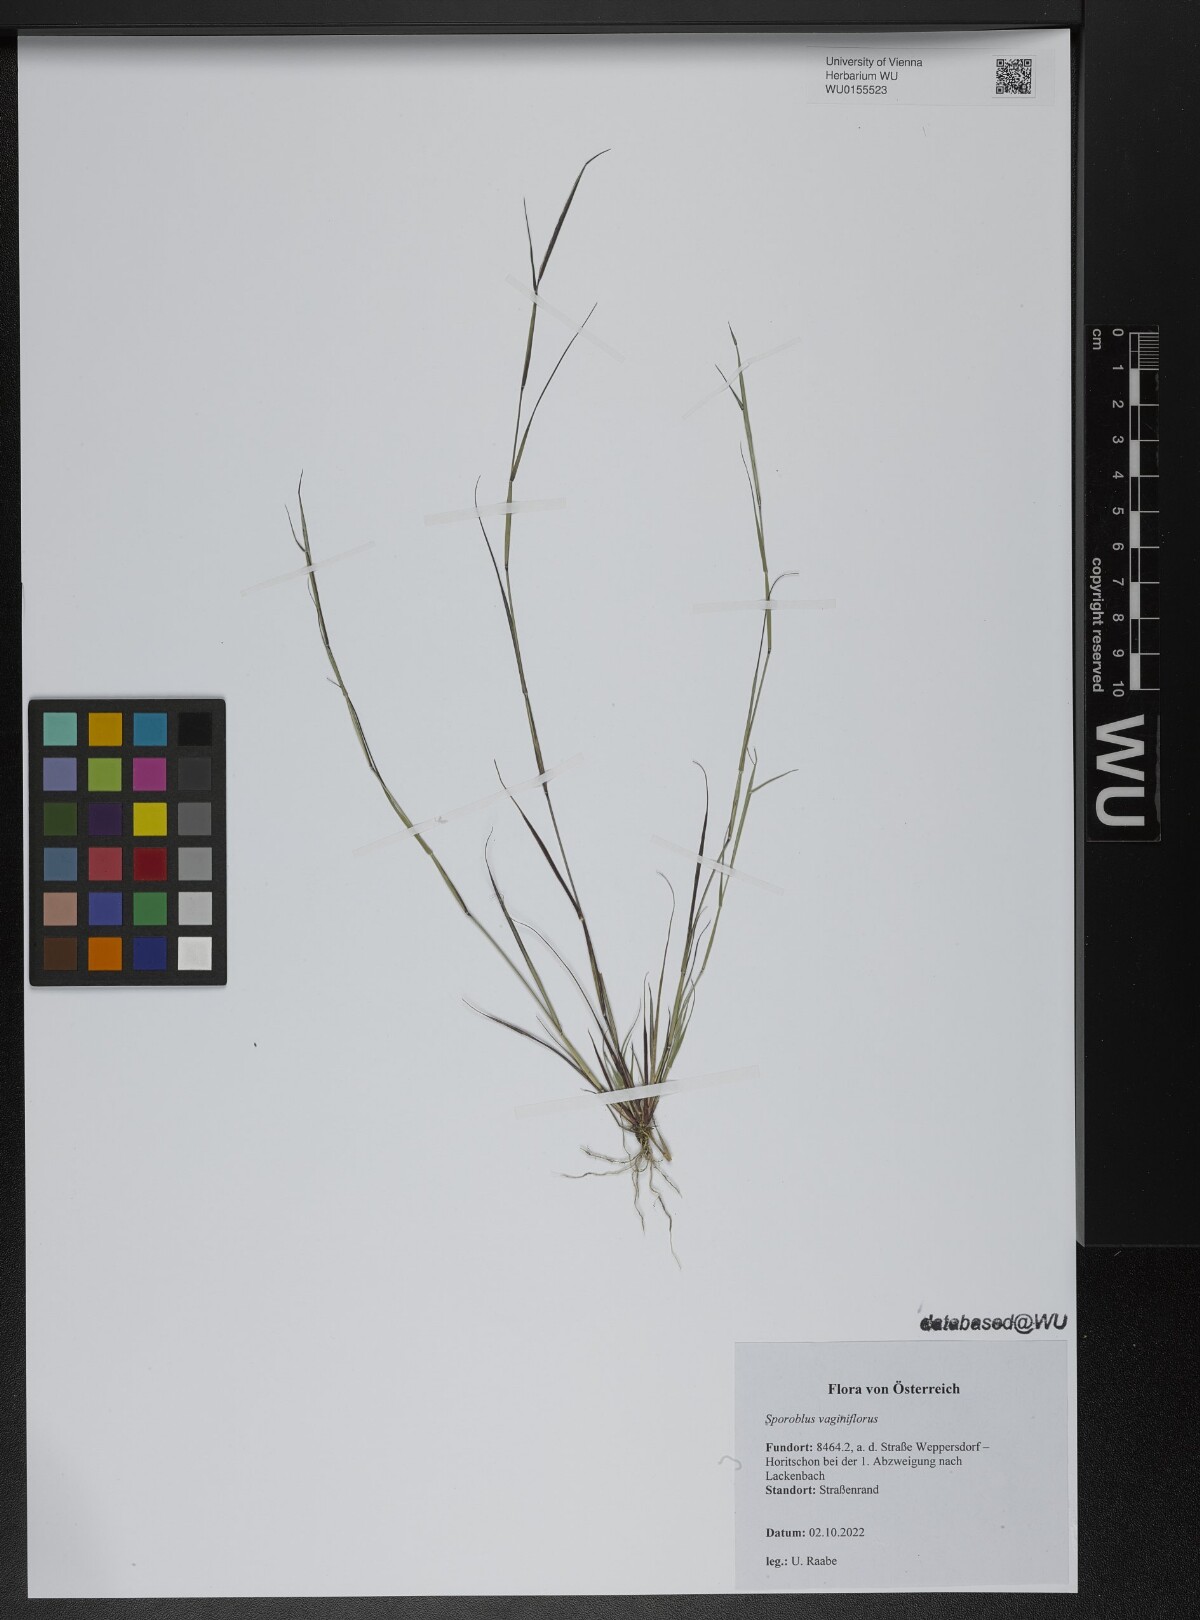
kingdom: Plantae
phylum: Tracheophyta
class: Liliopsida
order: Poales
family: Poaceae
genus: Sporobolus
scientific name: Sporobolus vaginiflorus
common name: Poverty dropseed
